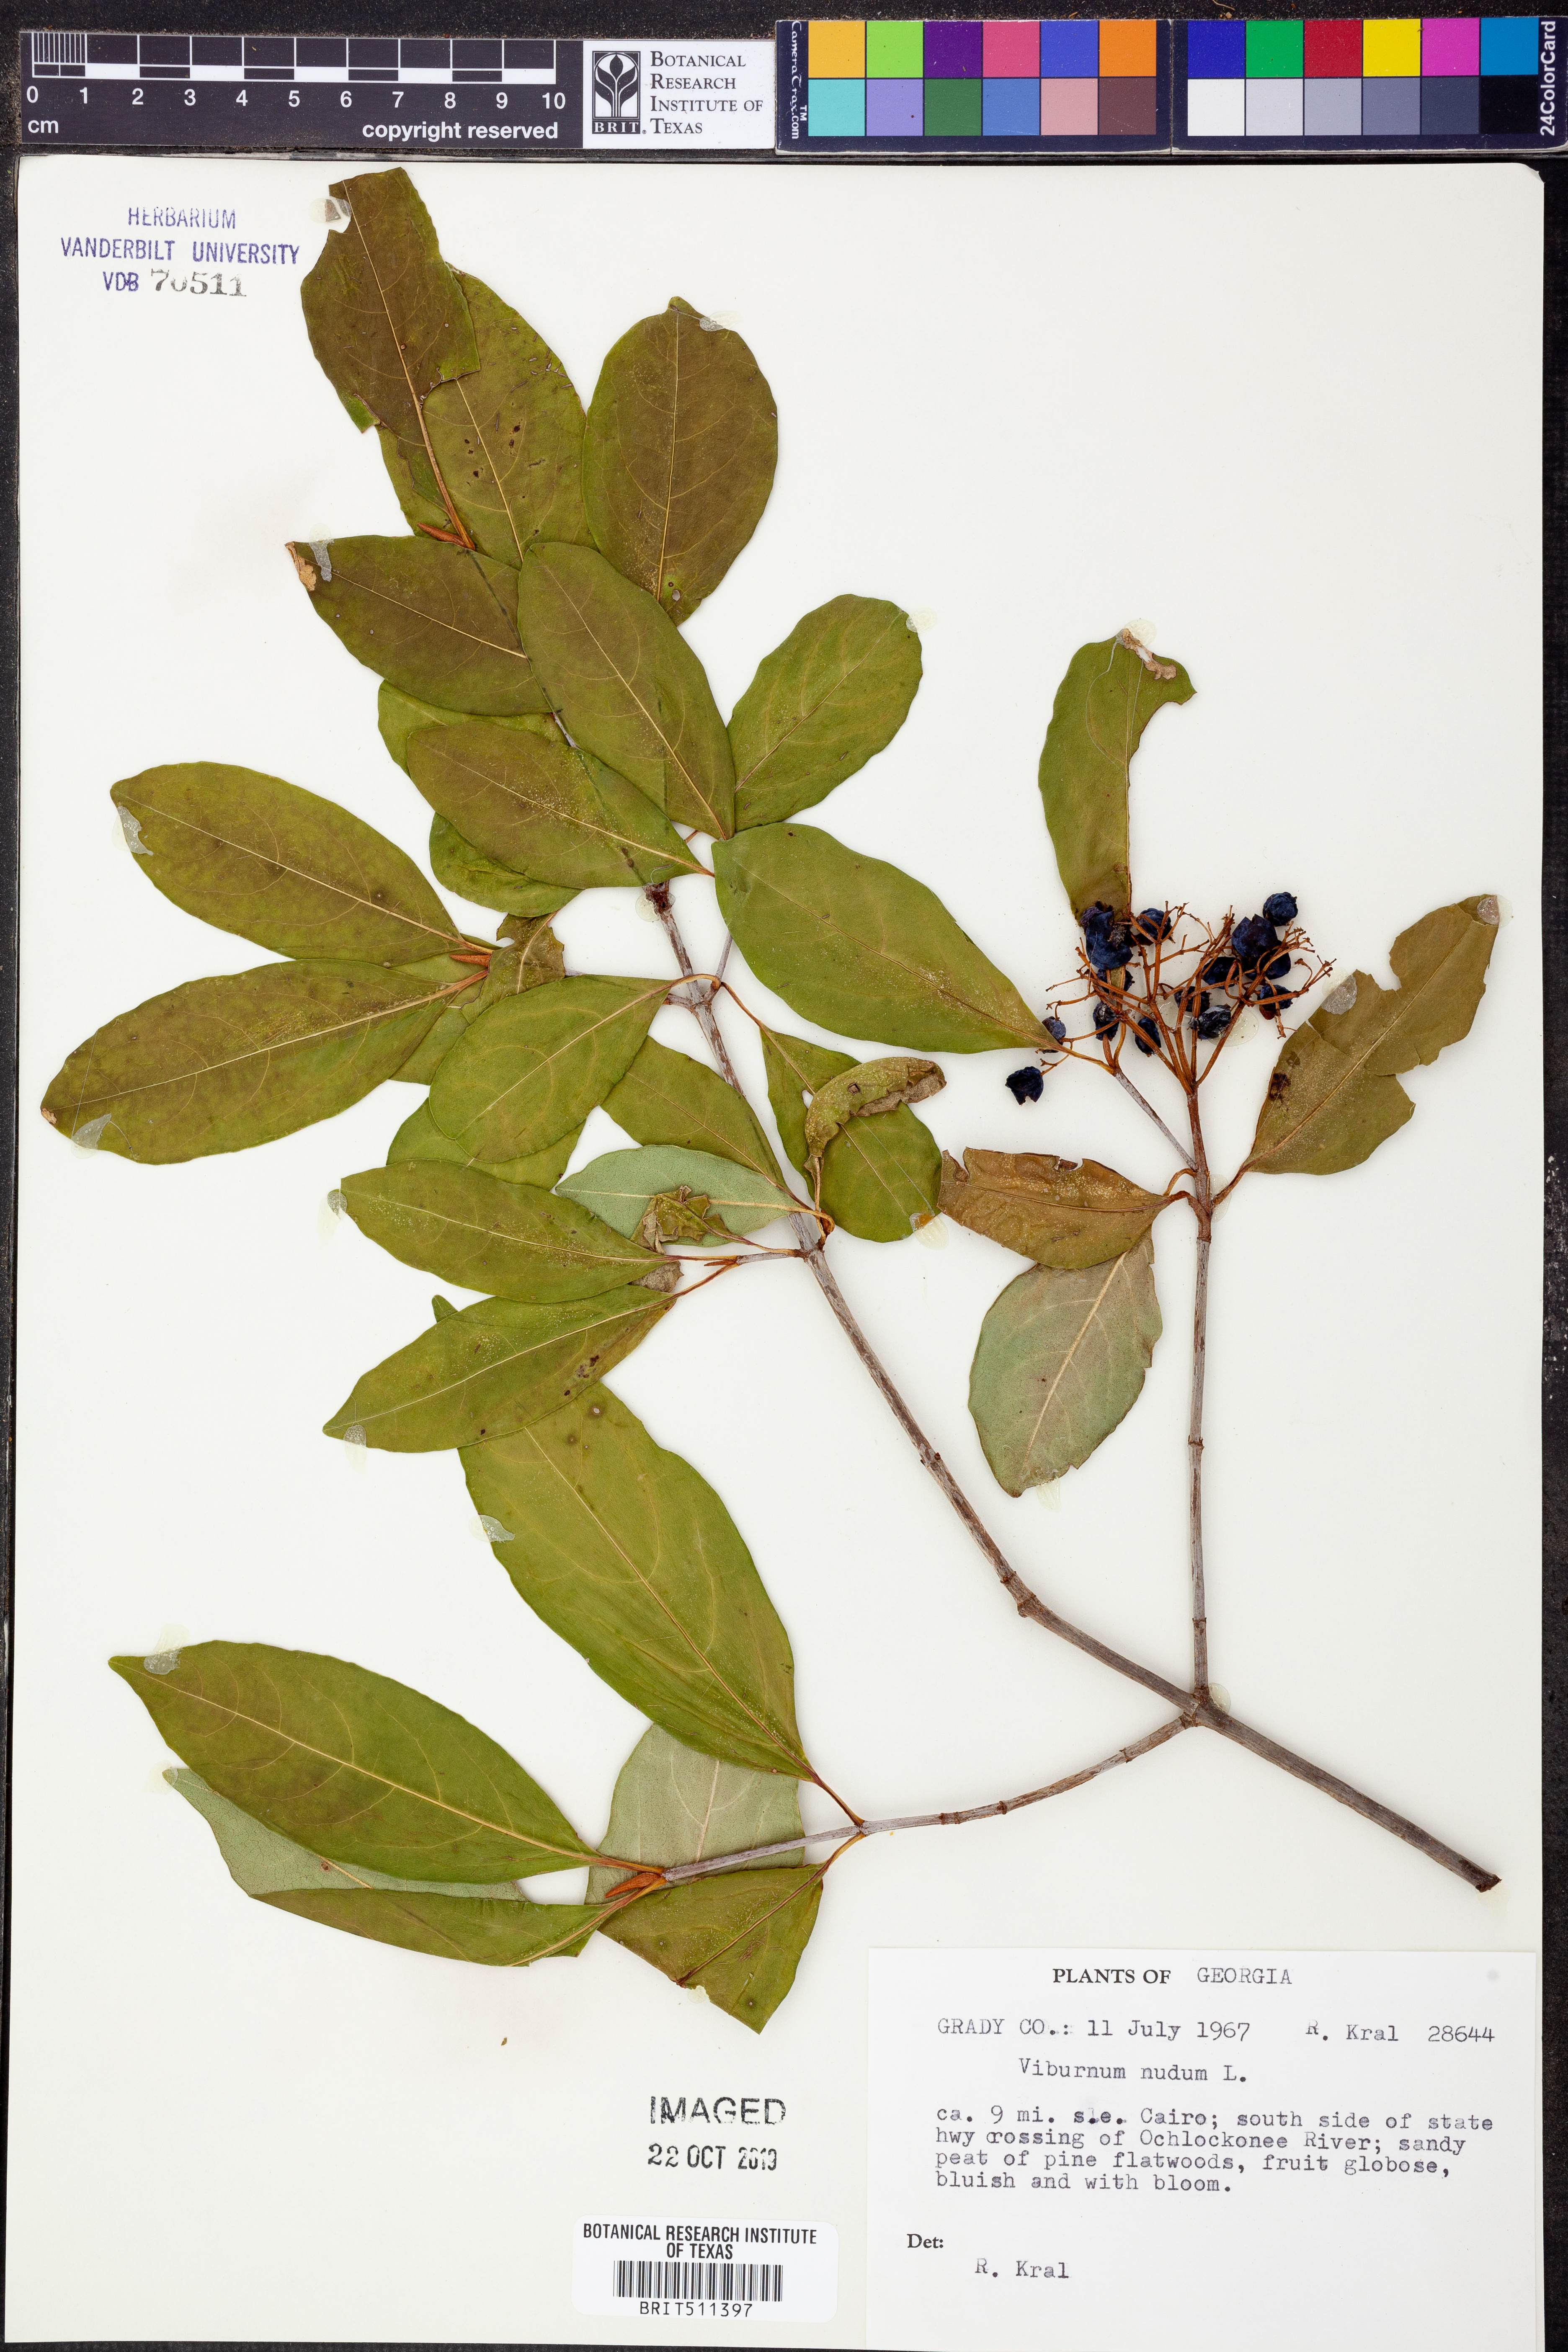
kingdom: Plantae
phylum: Tracheophyta
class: Magnoliopsida
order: Dipsacales
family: Viburnaceae
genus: Viburnum
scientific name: Viburnum nudum
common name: Possum haw
